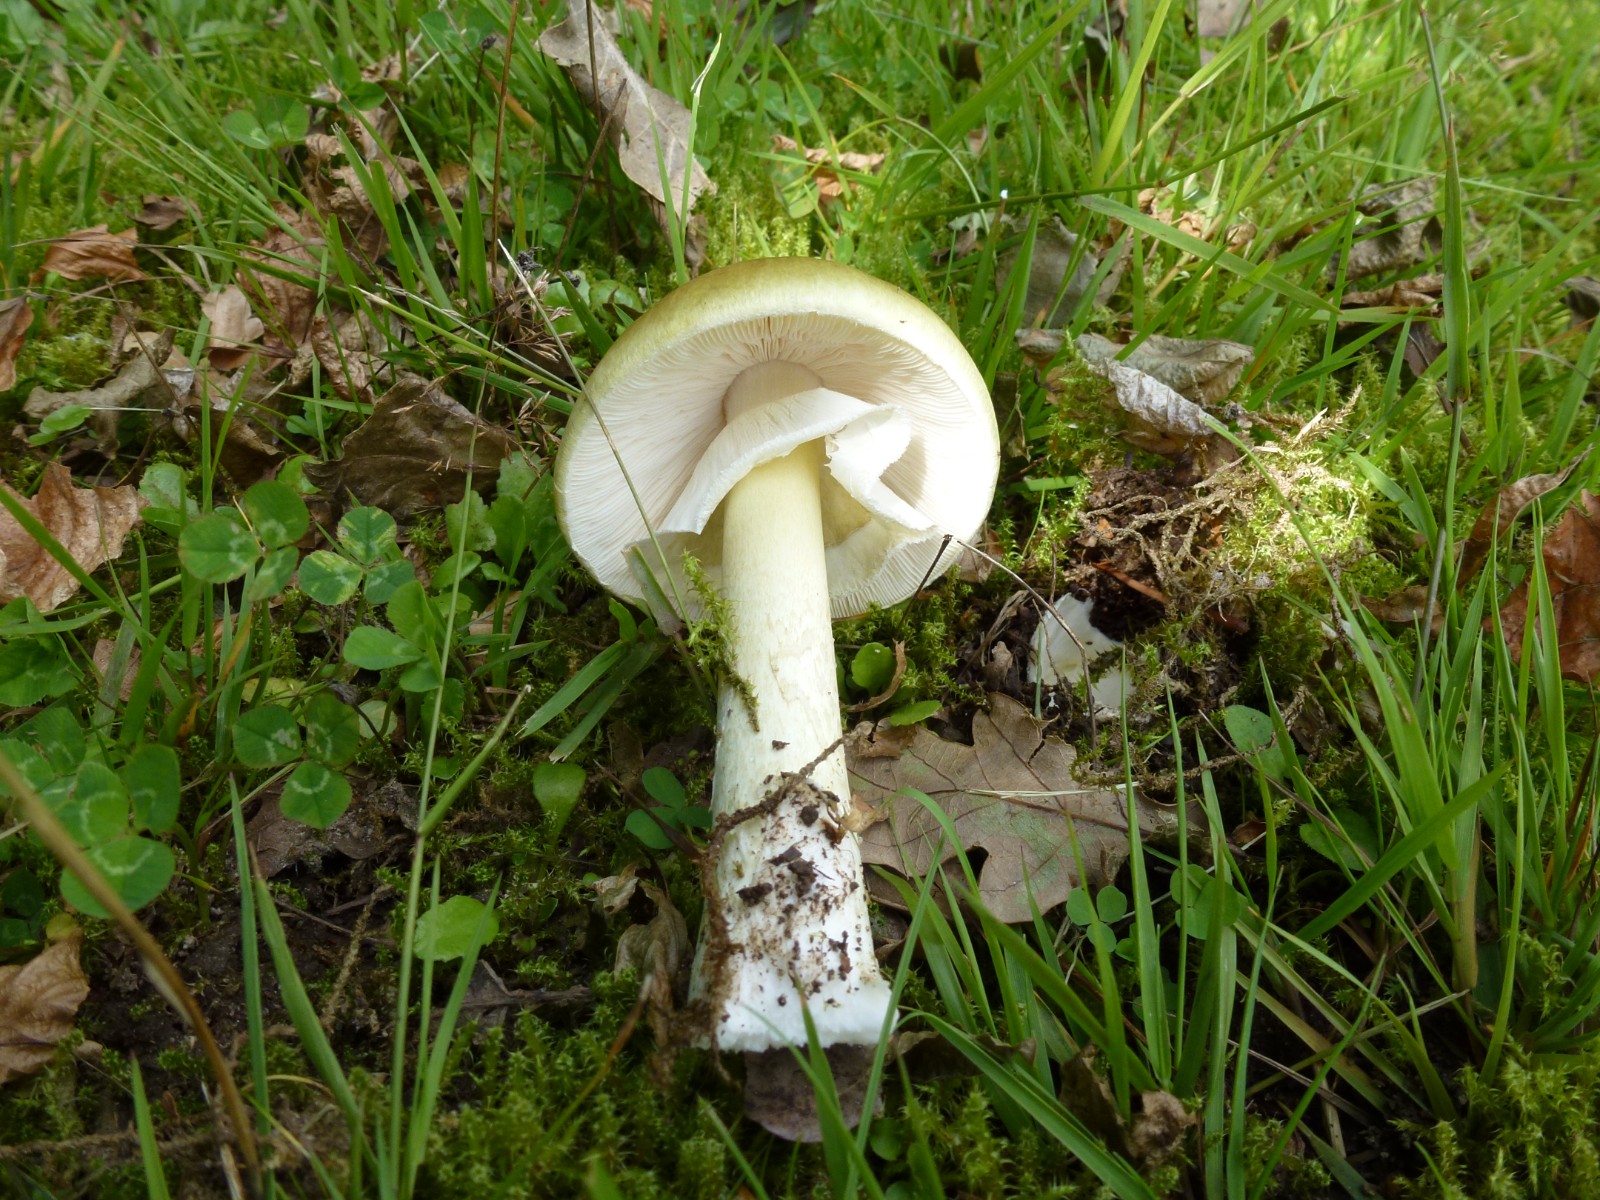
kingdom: Fungi
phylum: Basidiomycota
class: Agaricomycetes
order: Agaricales
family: Amanitaceae
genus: Amanita
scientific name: Amanita phalloides
